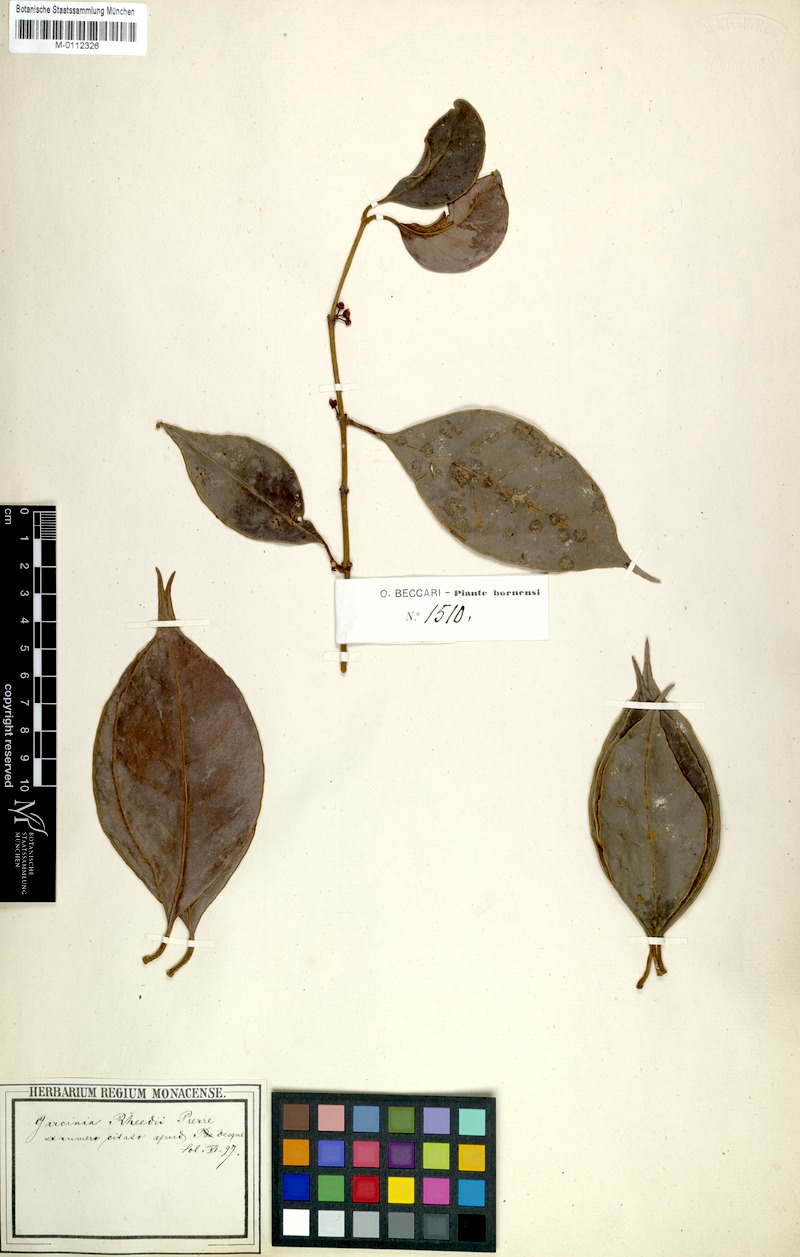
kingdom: Plantae
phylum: Tracheophyta
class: Magnoliopsida
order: Malpighiales
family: Clusiaceae
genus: Garcinia
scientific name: Garcinia rheedei
